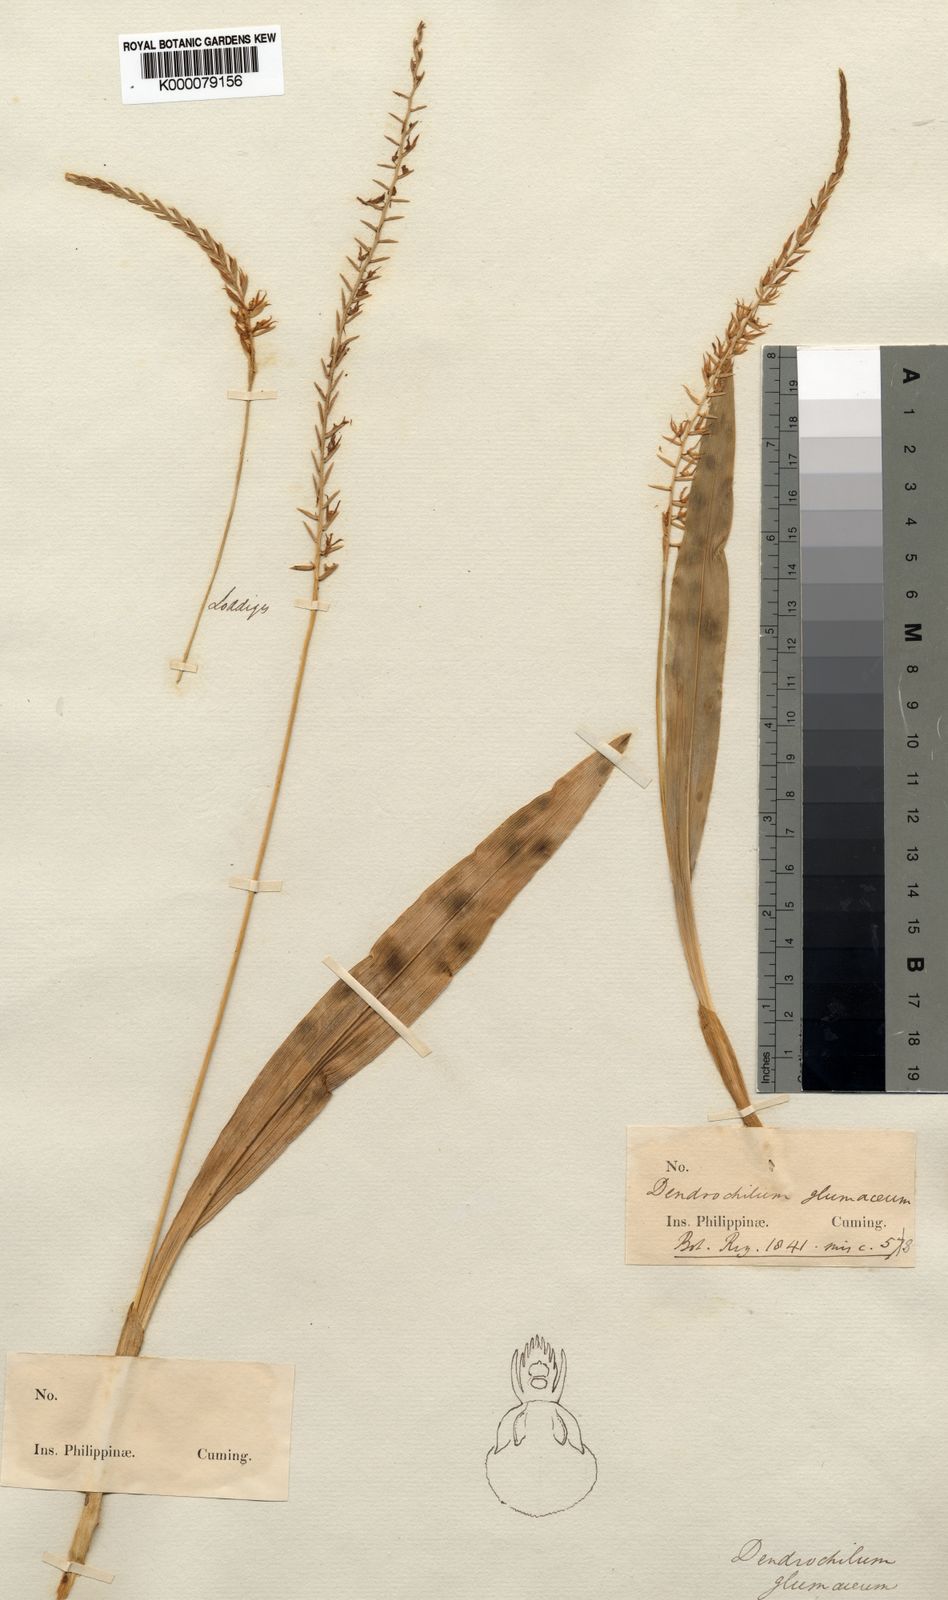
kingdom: Plantae
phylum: Tracheophyta
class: Liliopsida
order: Asparagales
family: Orchidaceae
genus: Coelogyne
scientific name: Coelogyne glumacea
